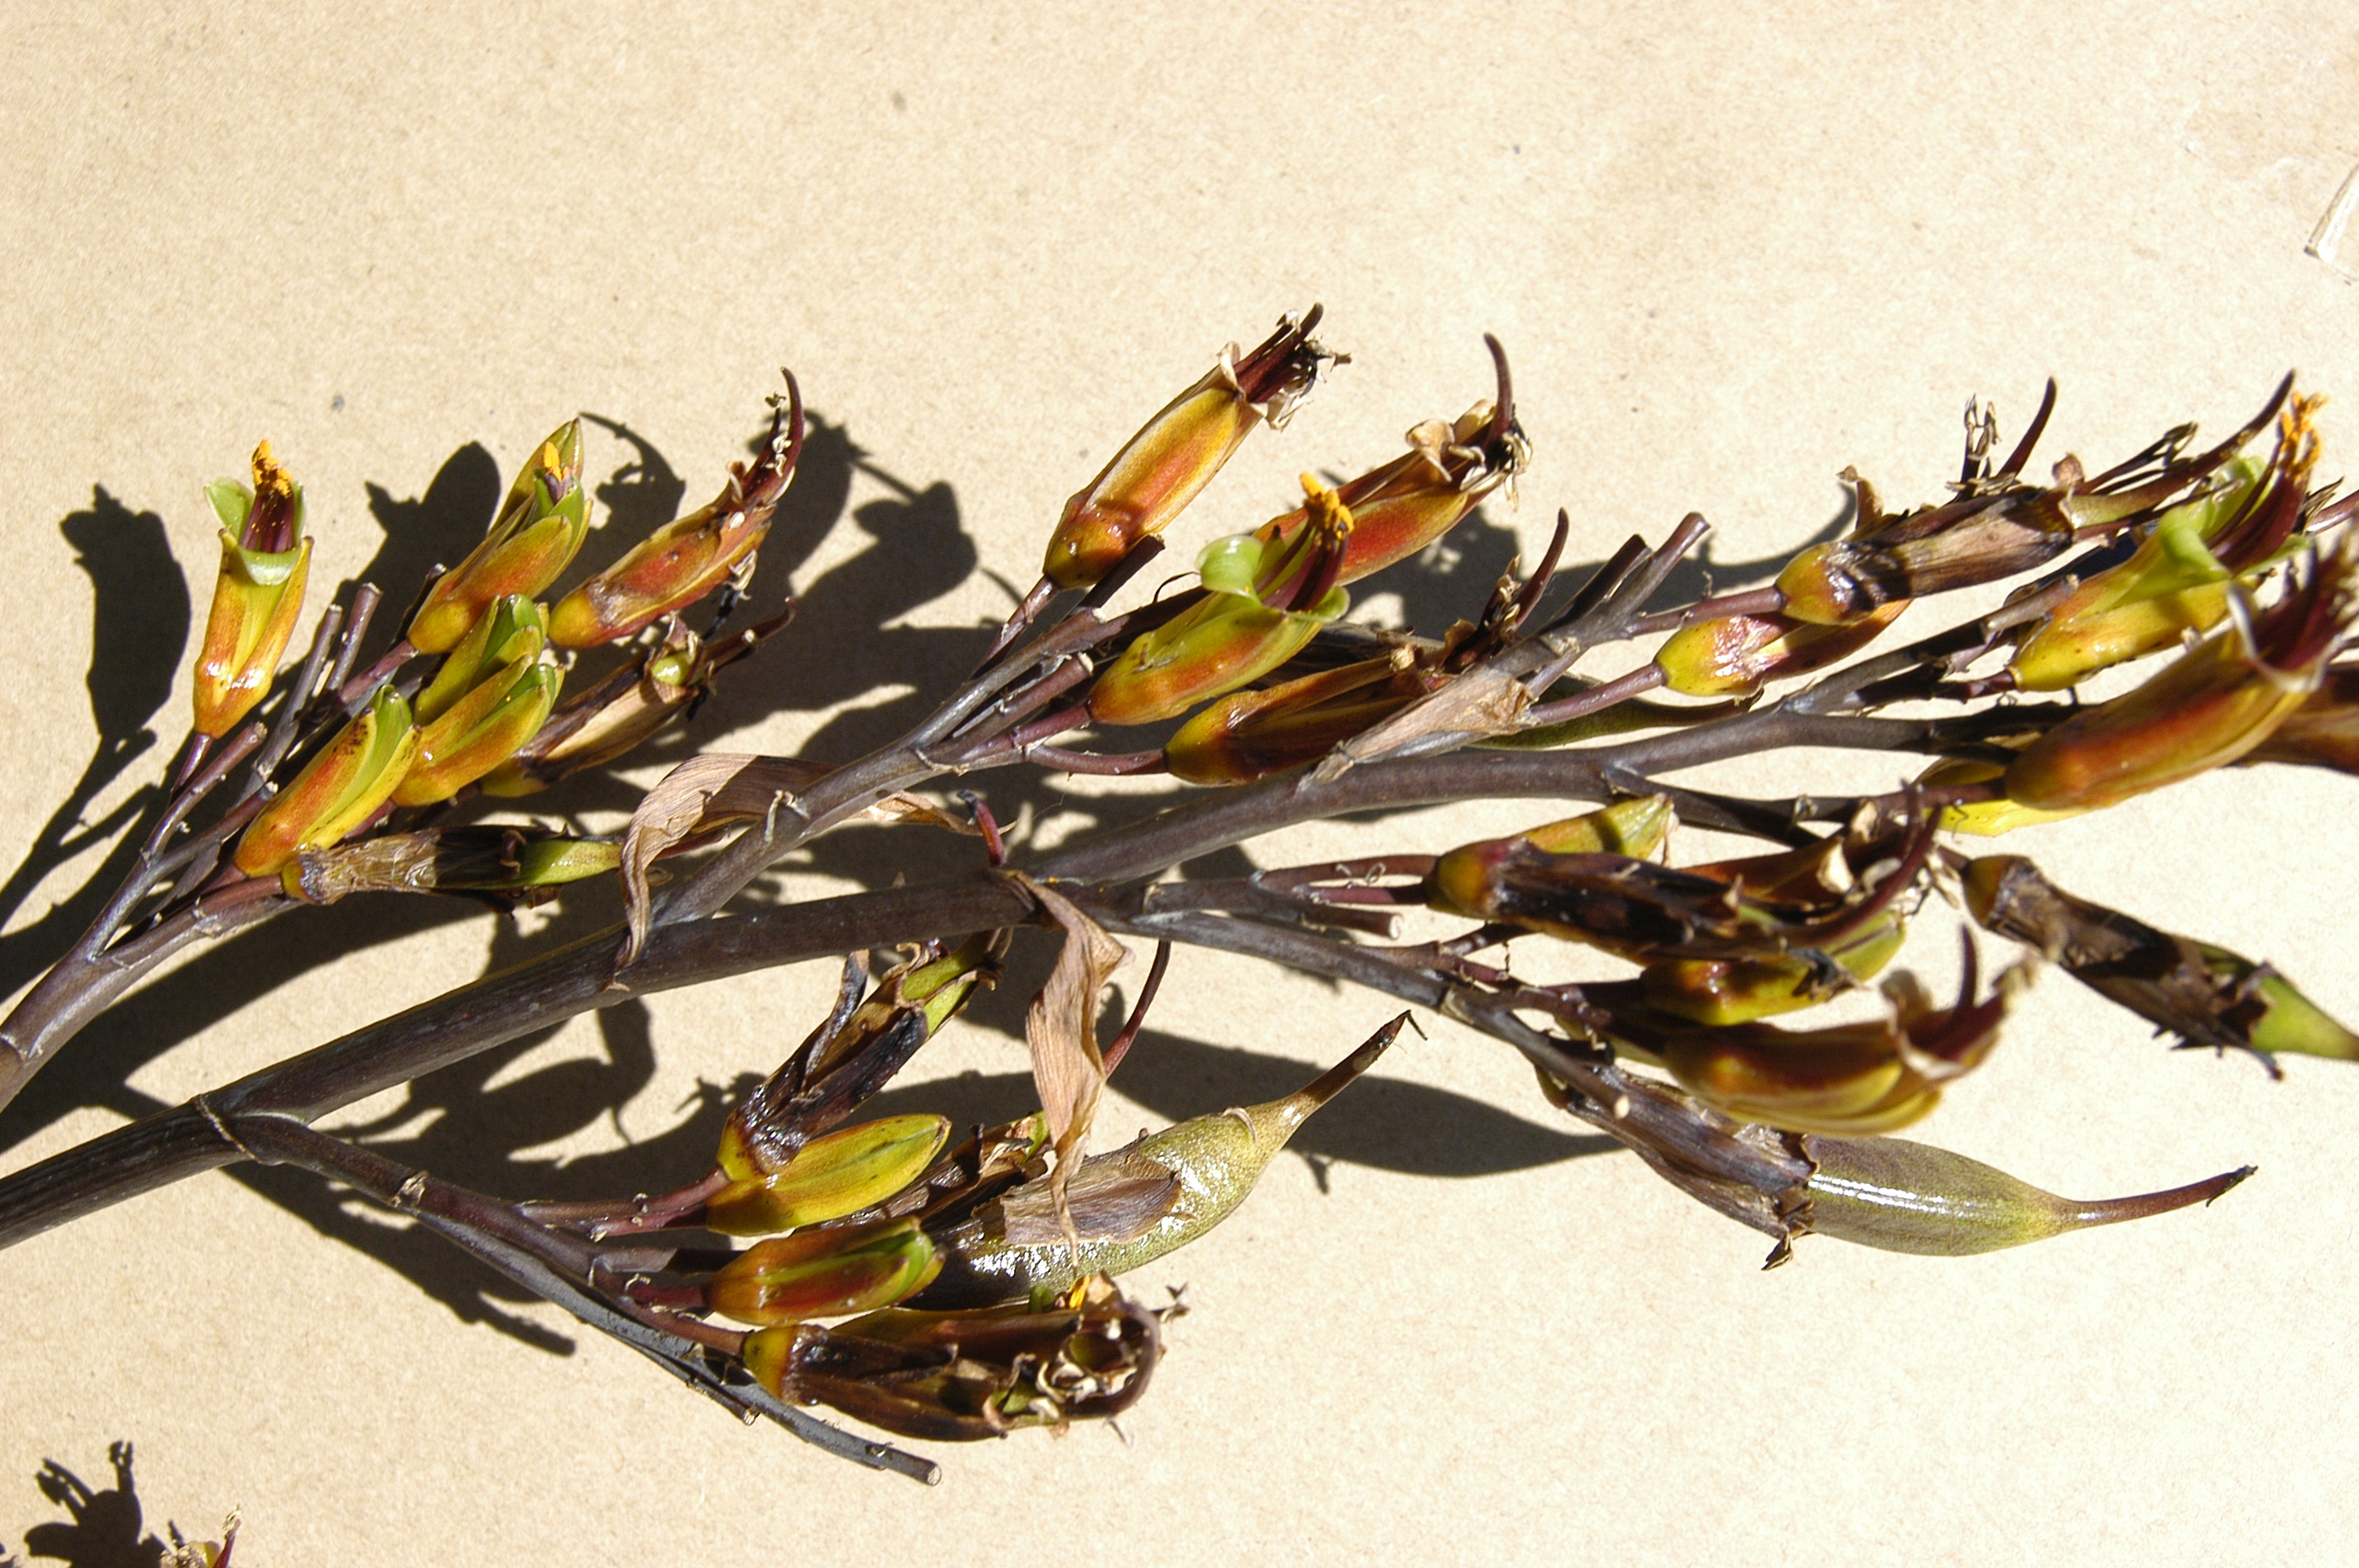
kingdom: Plantae
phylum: Tracheophyta
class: Liliopsida
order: Asparagales
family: Asphodelaceae
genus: Phormium
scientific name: Phormium colensoi
